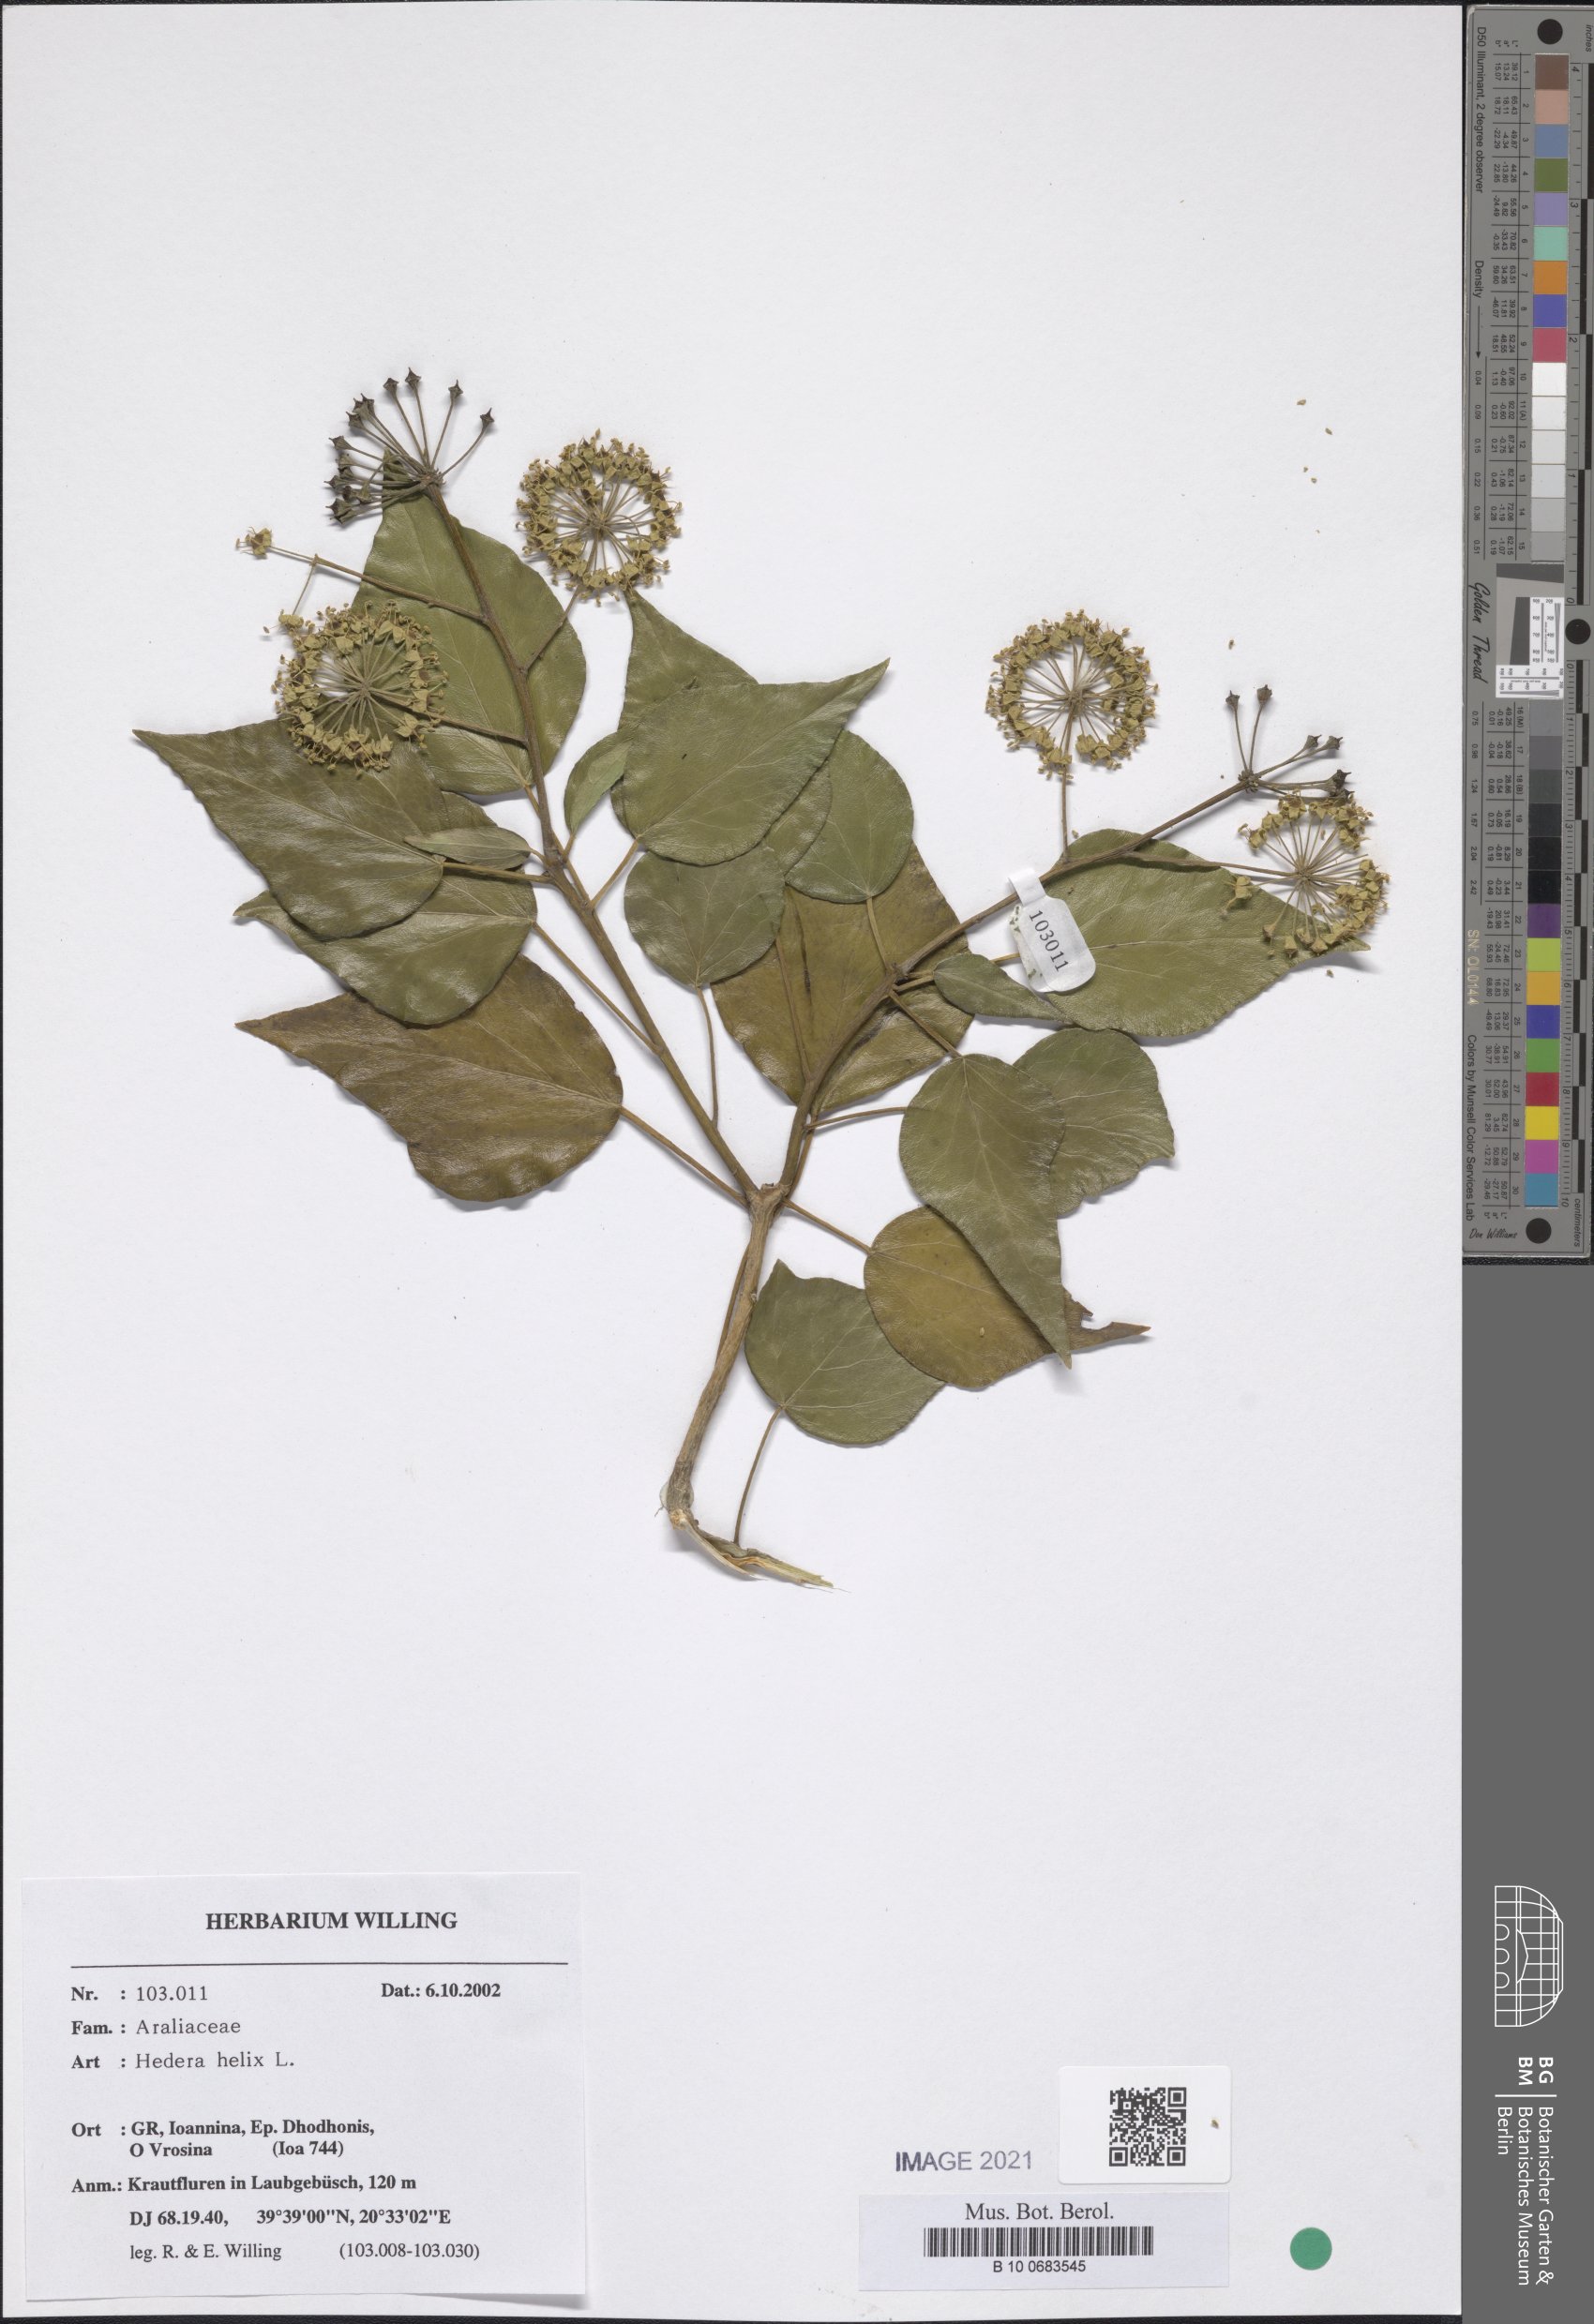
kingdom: Plantae
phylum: Tracheophyta
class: Magnoliopsida
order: Apiales
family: Araliaceae
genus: Hedera
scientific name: Hedera helix
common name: Ivy
